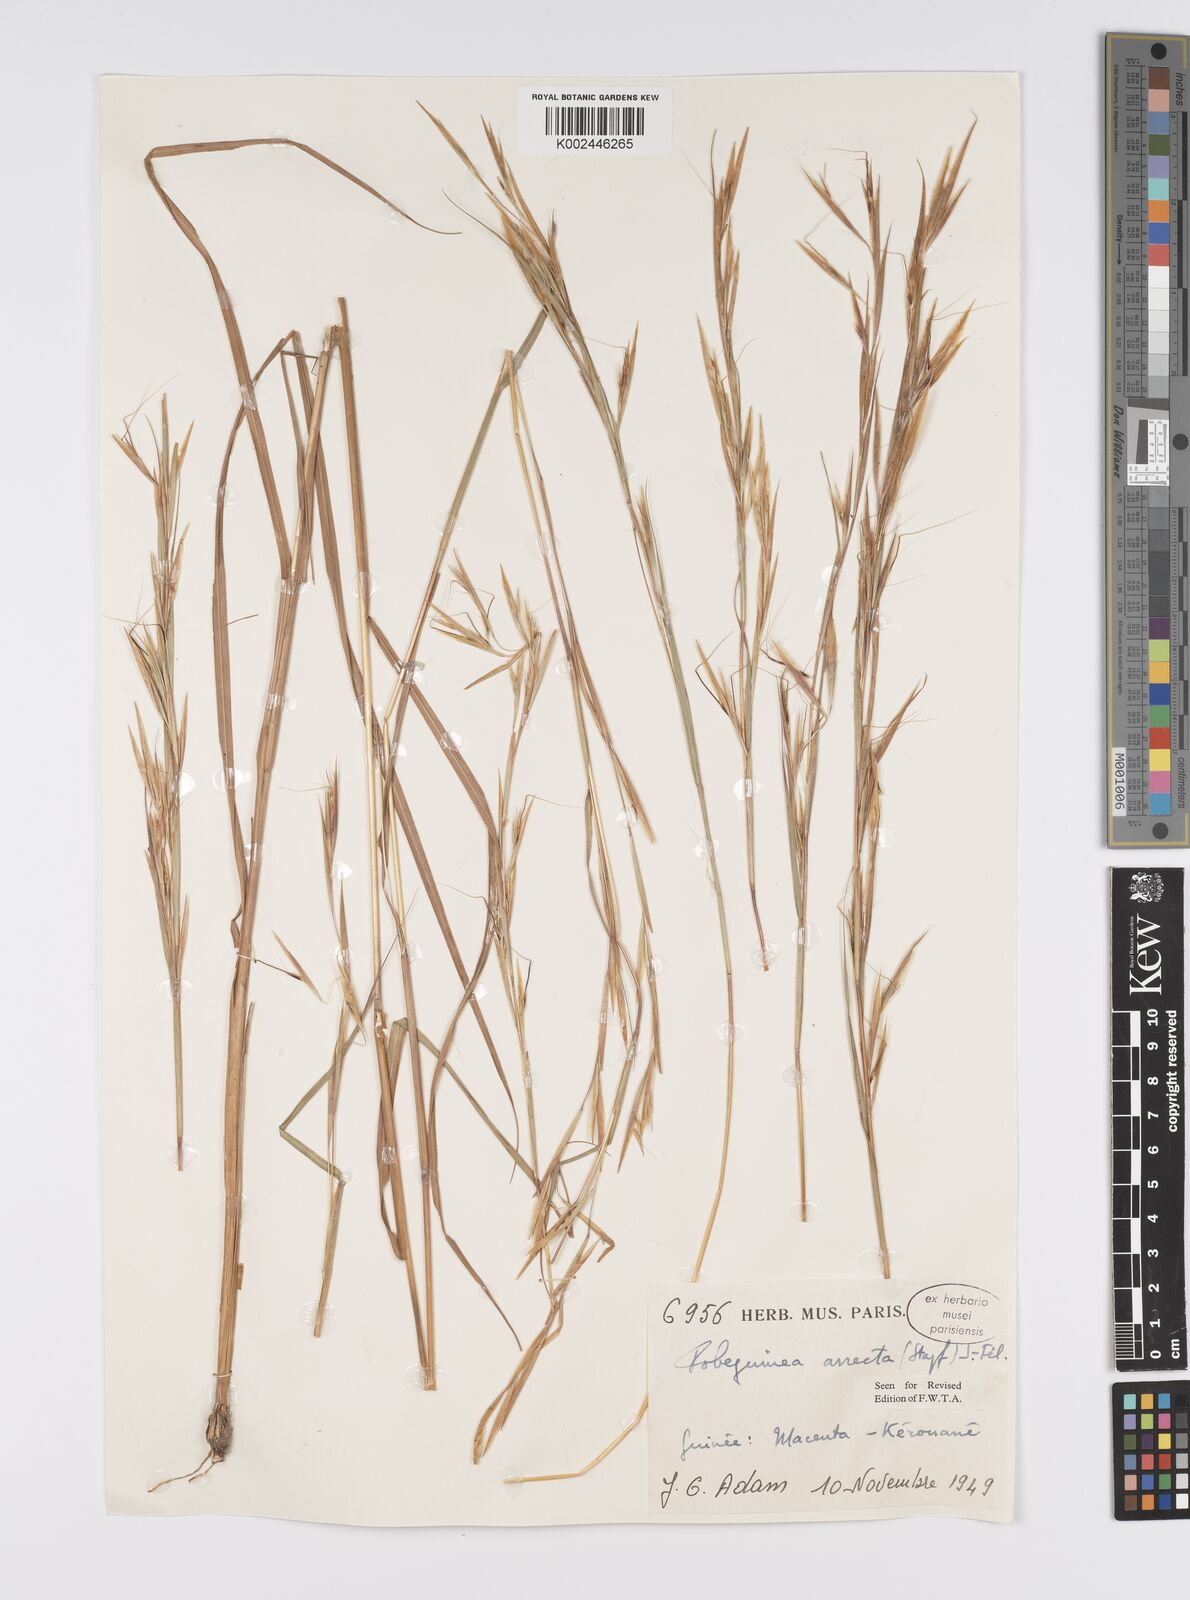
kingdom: Plantae
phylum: Tracheophyta
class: Liliopsida
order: Poales
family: Poaceae
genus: Anadelphia
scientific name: Anadelphia afzeliana
